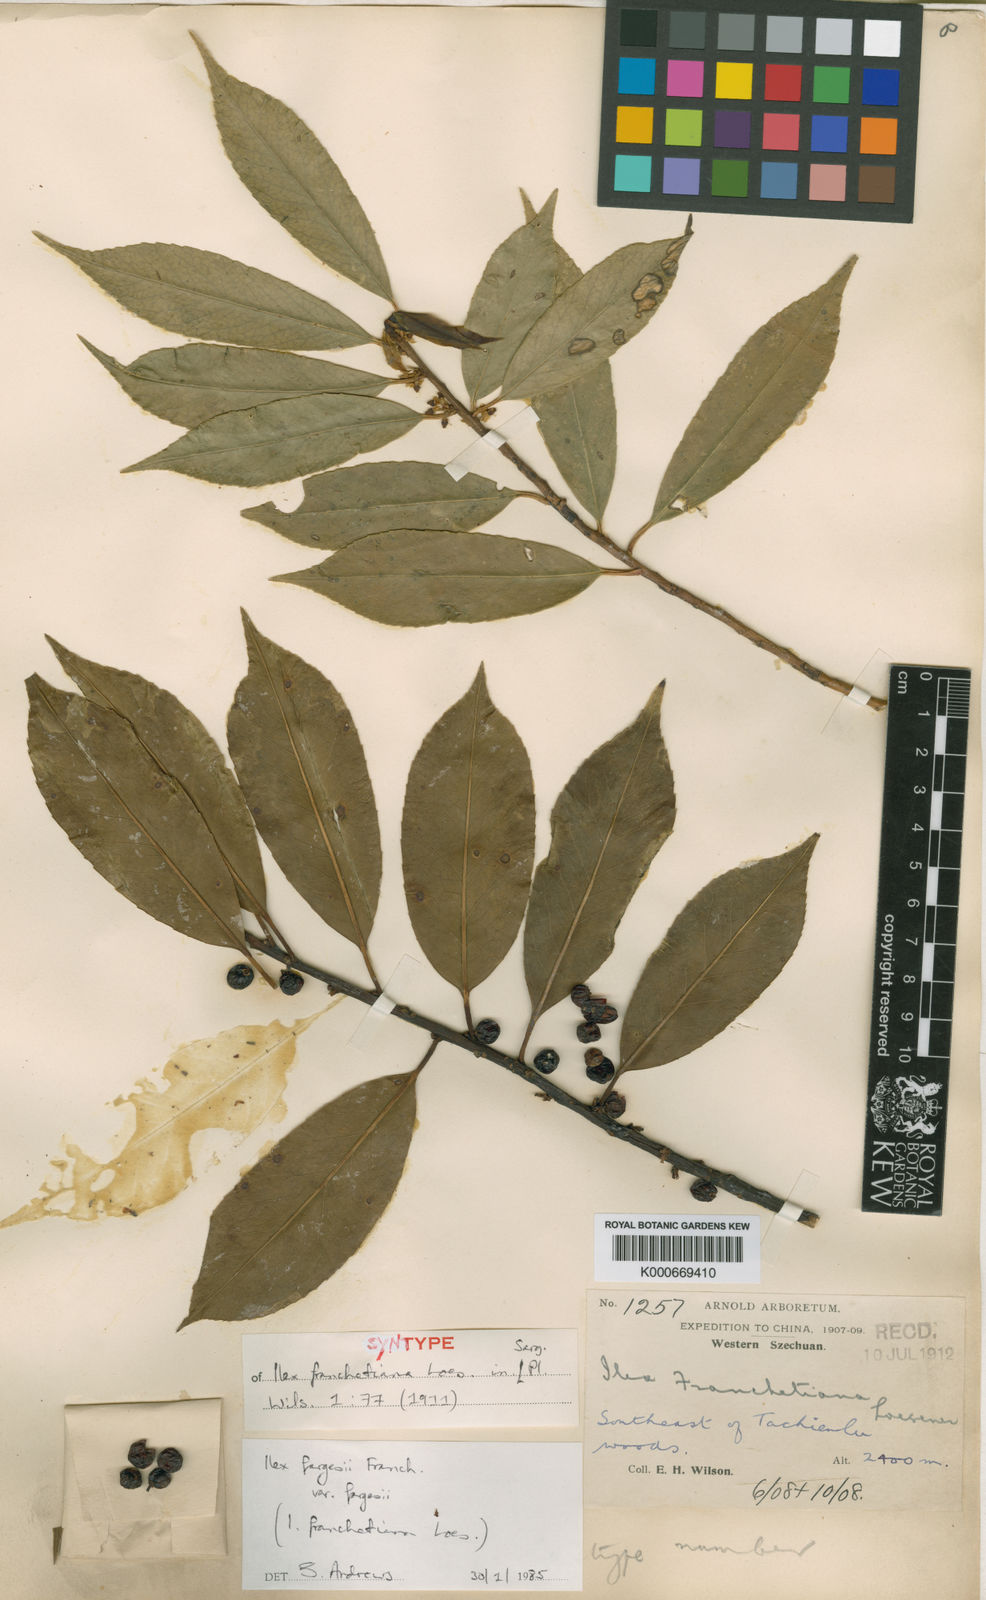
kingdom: Plantae
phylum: Tracheophyta
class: Magnoliopsida
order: Aquifoliales
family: Aquifoliaceae
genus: Ilex
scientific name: Ilex fargesii
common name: Farges’s holly
